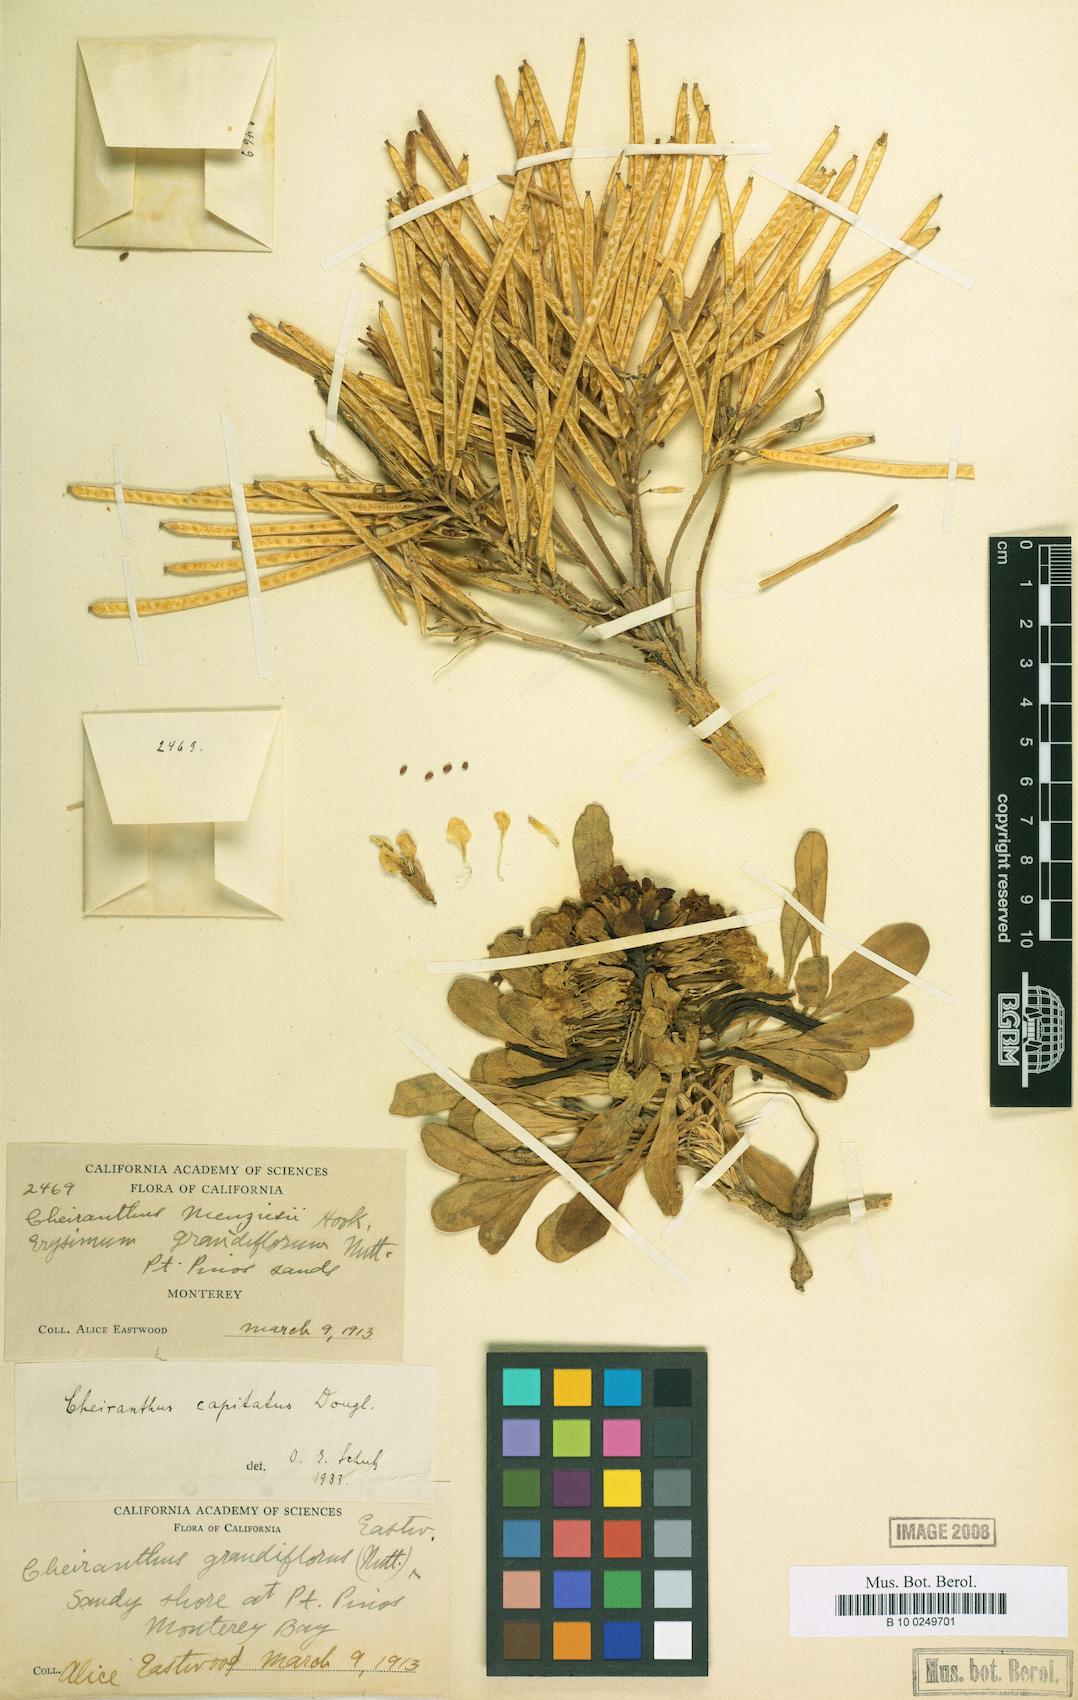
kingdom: Plantae
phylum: Tracheophyta
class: Magnoliopsida
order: Brassicales
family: Brassicaceae
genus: Erysimum
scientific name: Erysimum menziesii
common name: Menzies's wallflower
